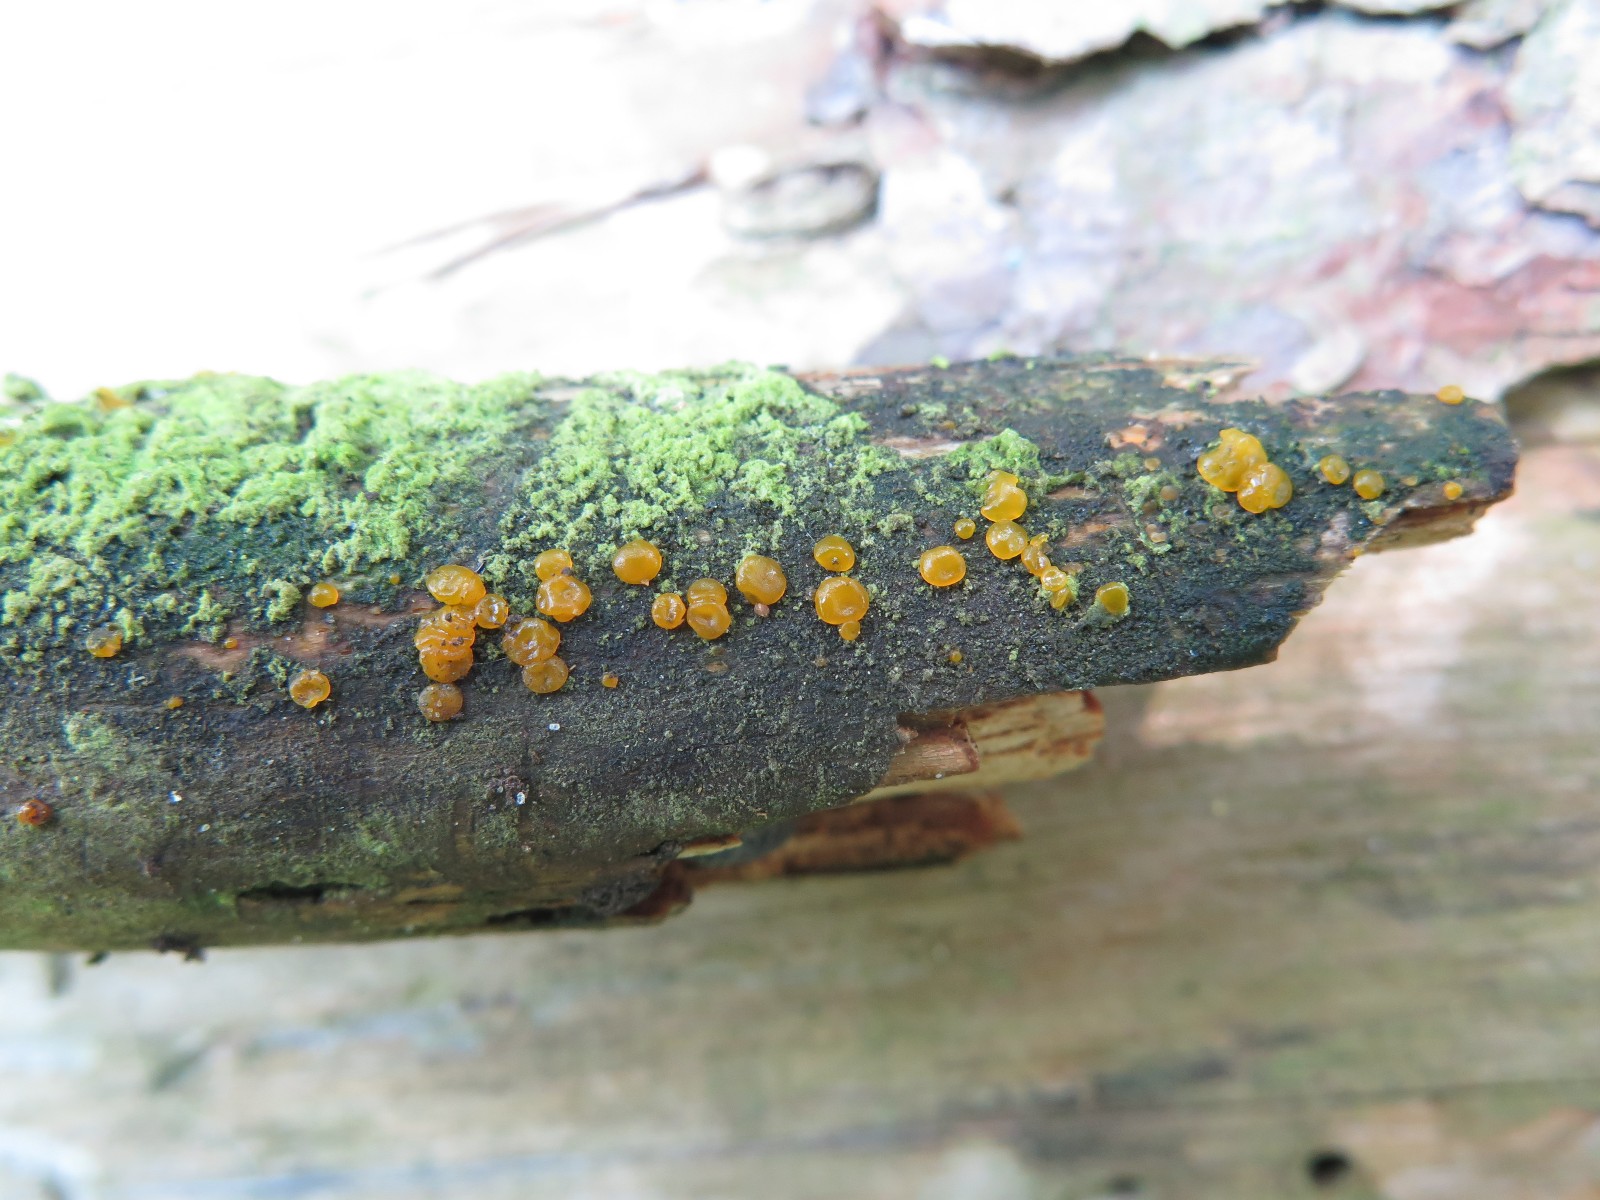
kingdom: Fungi
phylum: Basidiomycota
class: Dacrymycetes
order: Dacrymycetales
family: Dacrymycetaceae
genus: Dacrymyces
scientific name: Dacrymyces stillatus
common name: almindelig tåresvamp
